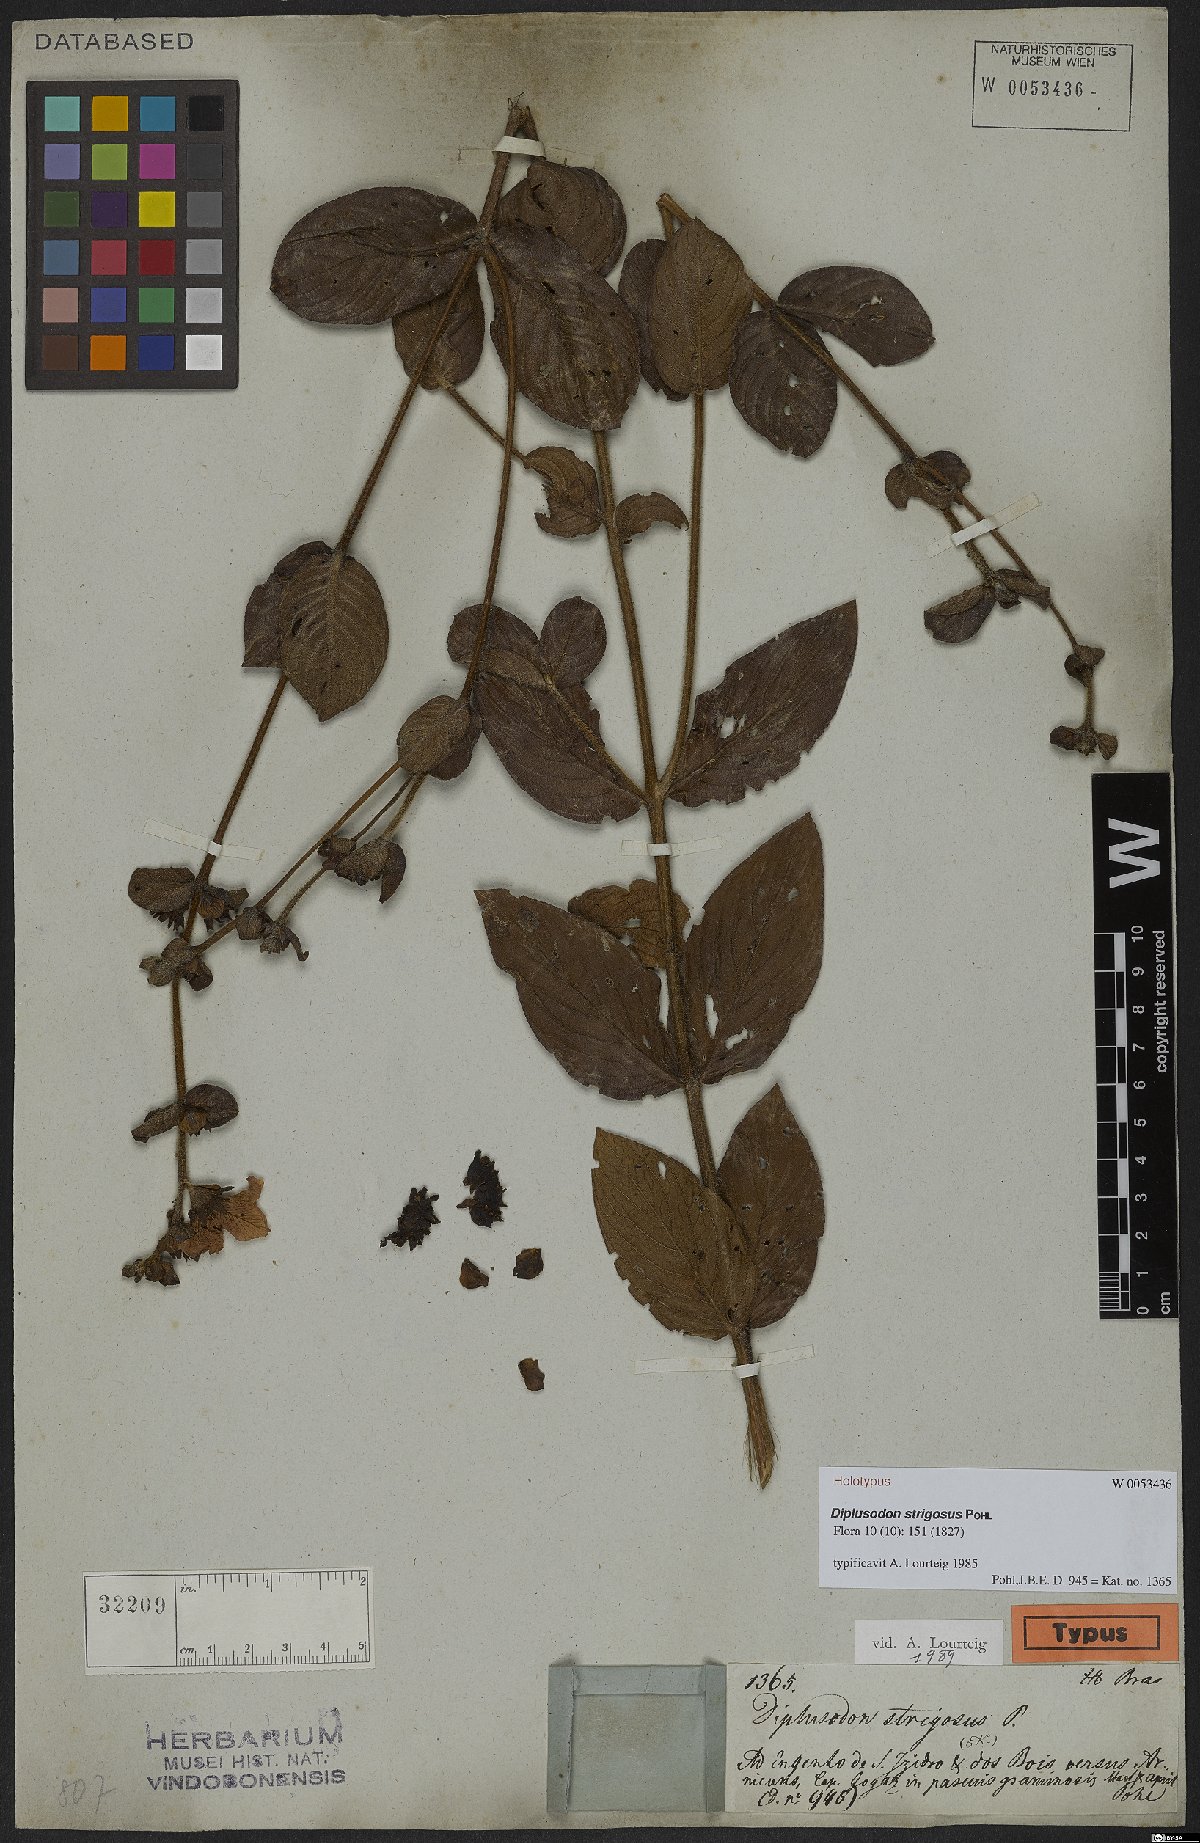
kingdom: Plantae
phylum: Tracheophyta
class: Magnoliopsida
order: Myrtales
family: Lythraceae
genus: Diplusodon
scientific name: Diplusodon strigosus
